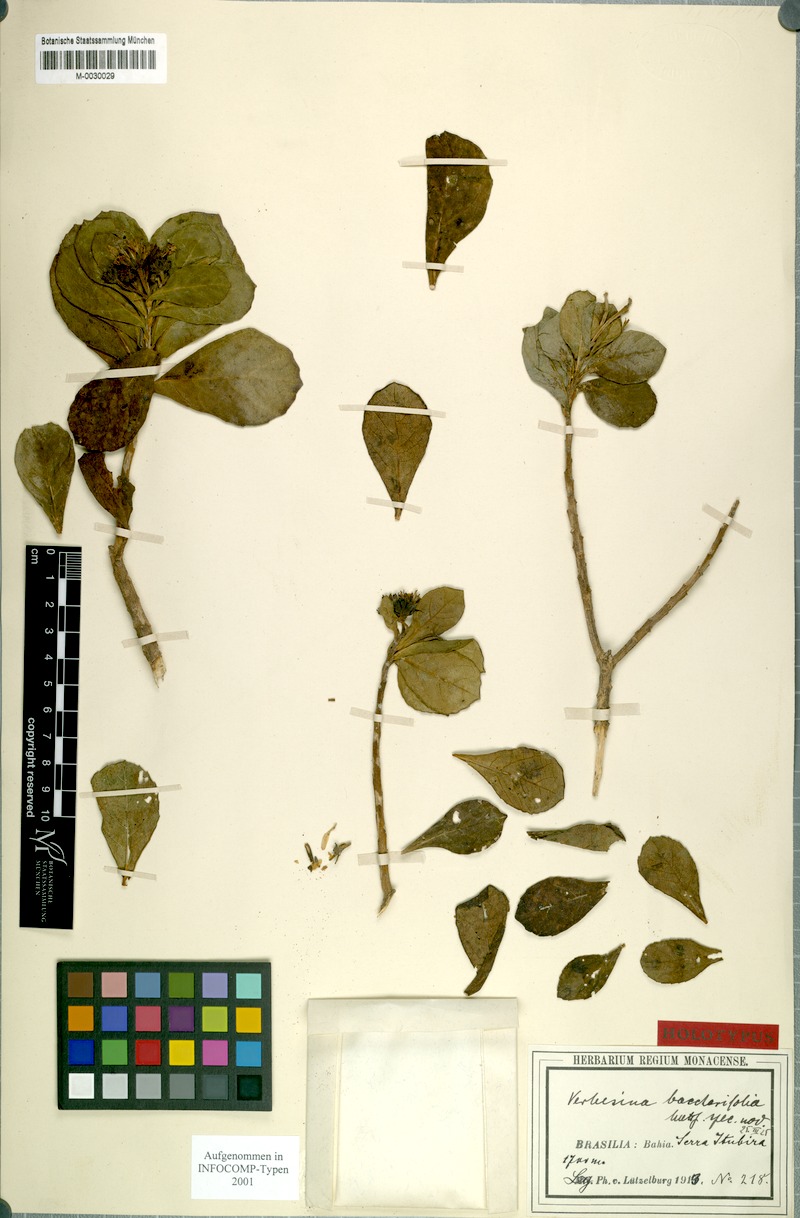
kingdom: Plantae
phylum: Tracheophyta
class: Magnoliopsida
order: Asterales
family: Asteraceae
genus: Verbesina
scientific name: Verbesina baccharifolia
